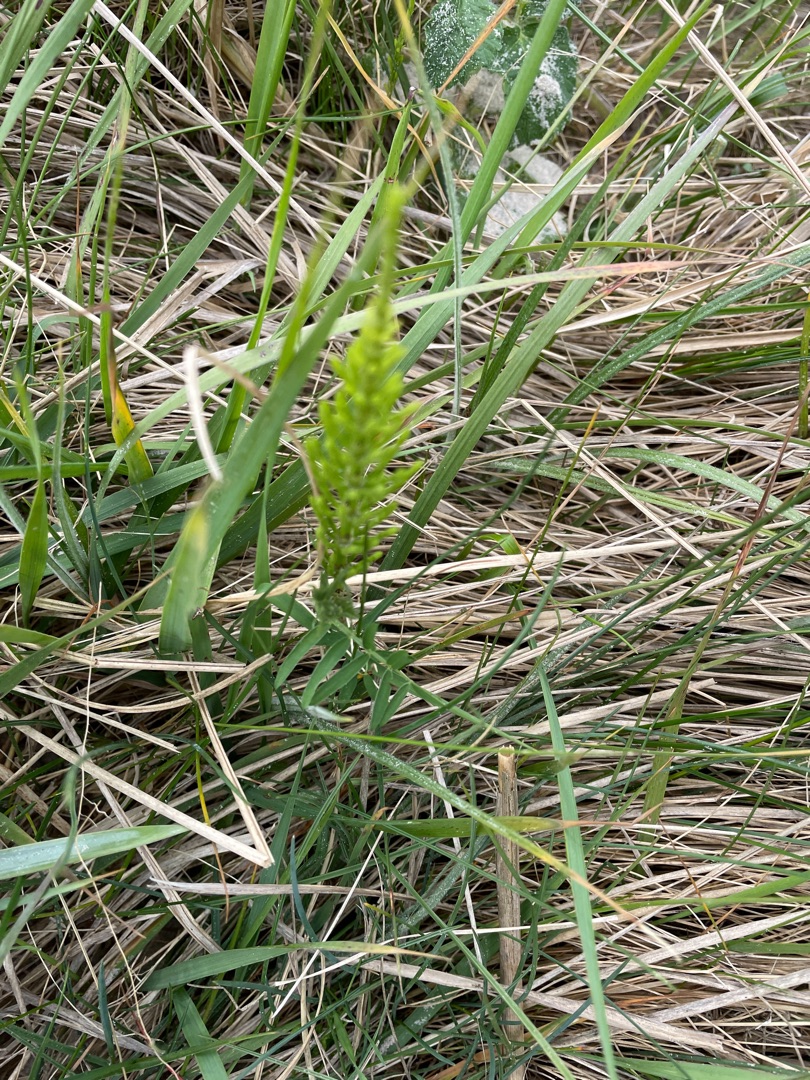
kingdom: Plantae
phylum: Tracheophyta
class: Polypodiopsida
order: Equisetales
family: Equisetaceae
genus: Equisetum
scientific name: Equisetum arvense
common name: Ager-padderok
